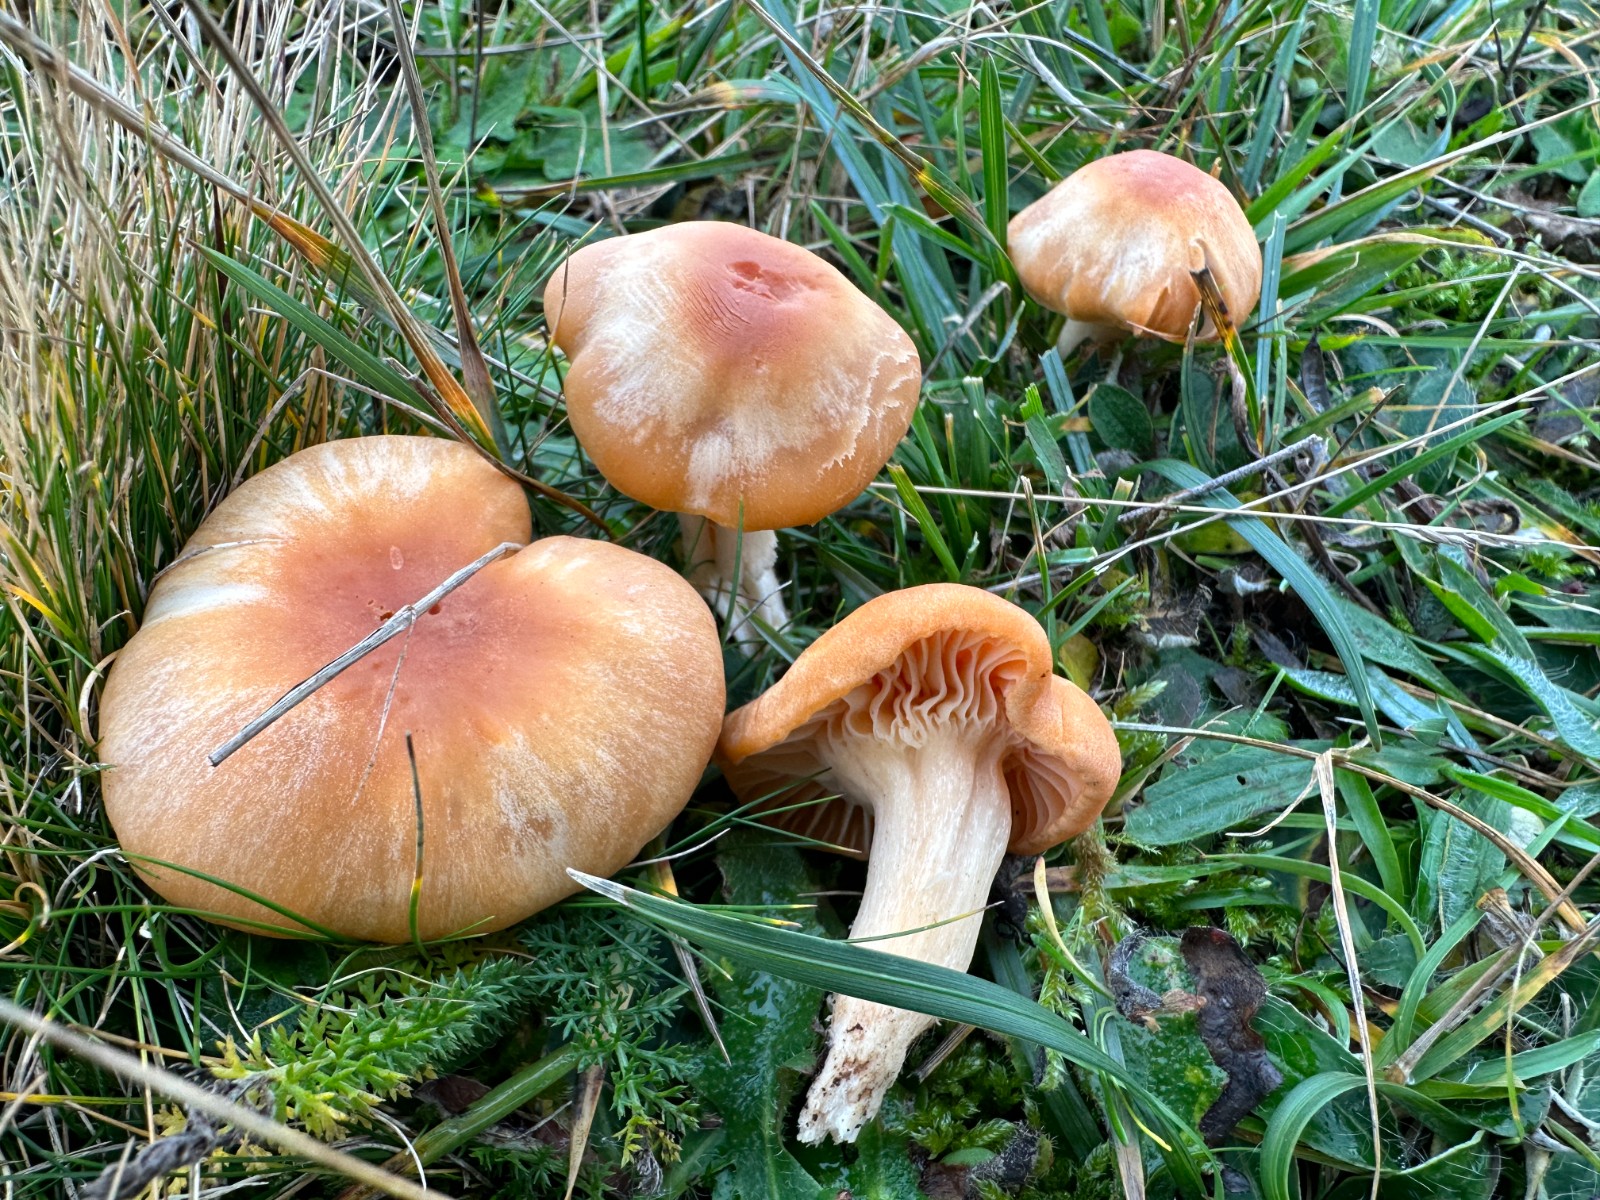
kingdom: Fungi
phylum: Basidiomycota
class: Agaricomycetes
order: Agaricales
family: Hygrophoraceae
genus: Cuphophyllus
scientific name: Cuphophyllus pratensis
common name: eng-vokshat
